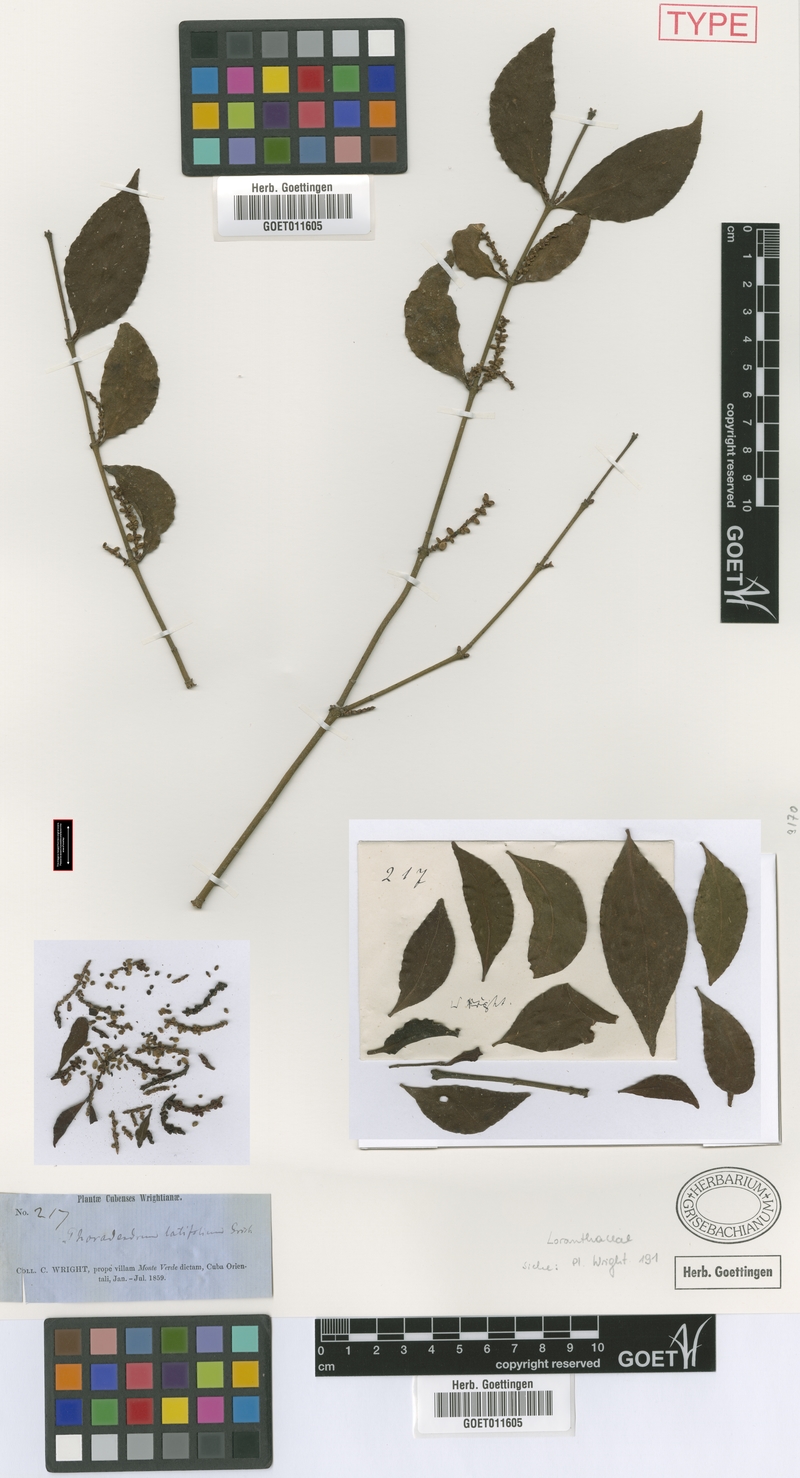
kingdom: Plantae
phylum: Tracheophyta
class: Magnoliopsida
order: Santalales
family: Viscaceae
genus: Phoradendron
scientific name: Phoradendron piperoides
